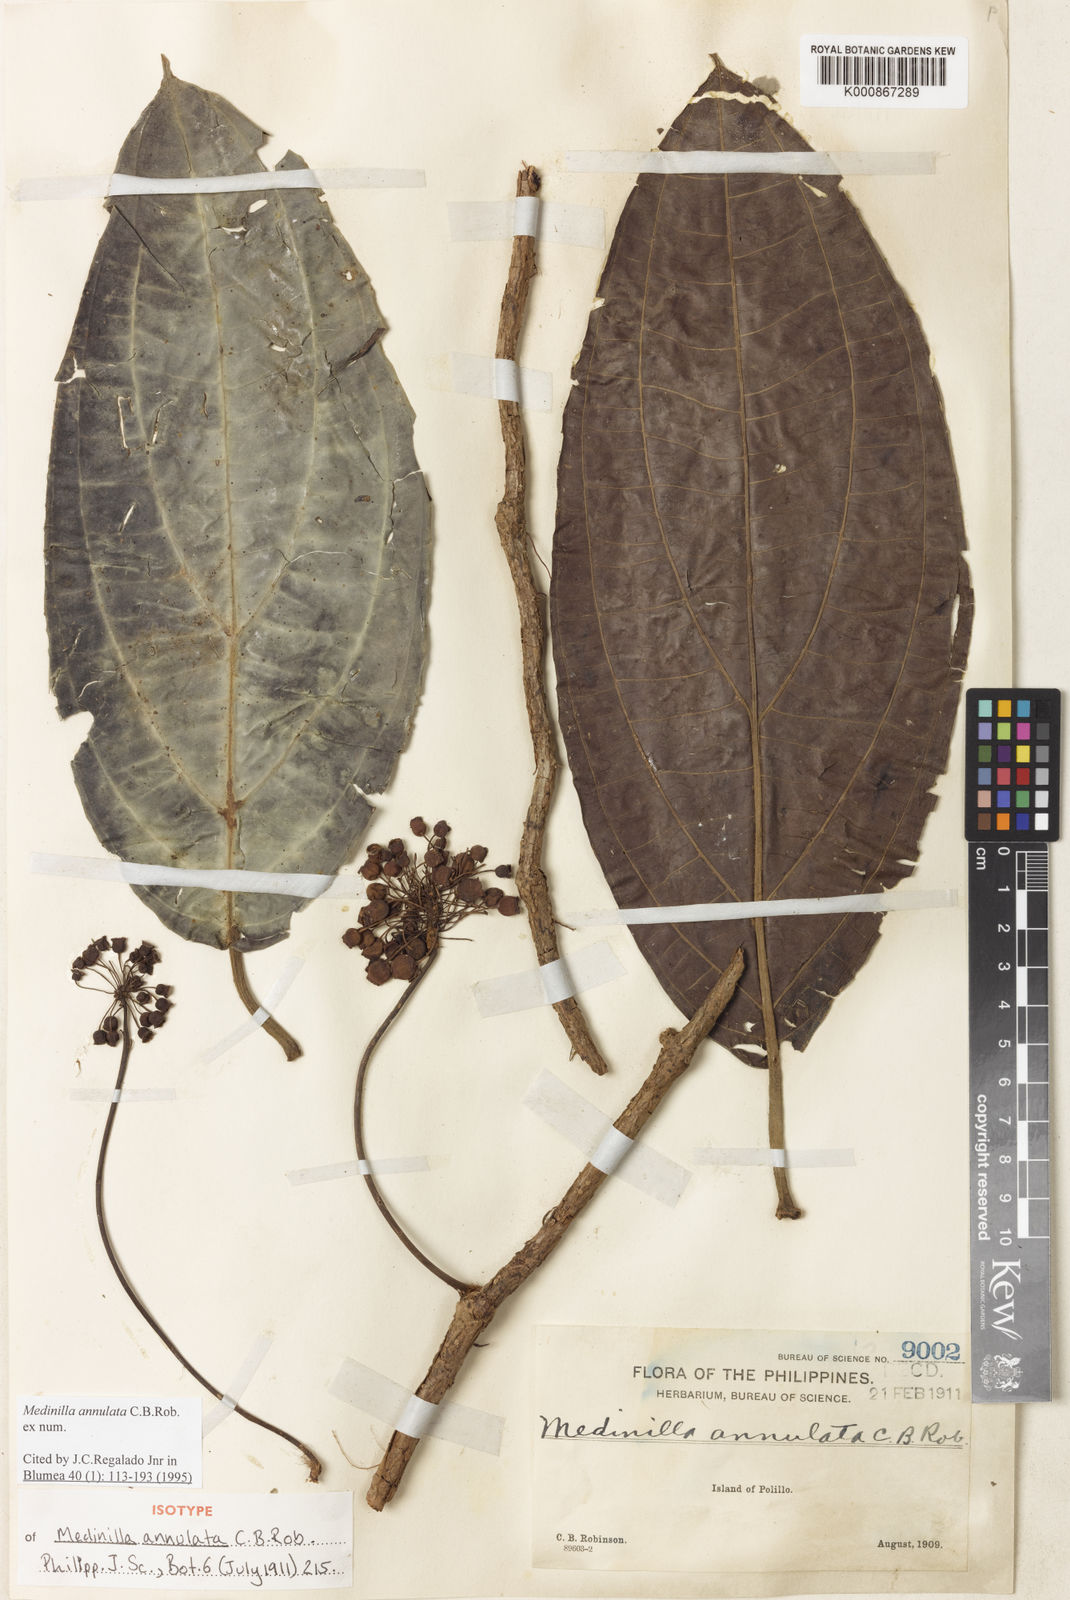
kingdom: Plantae
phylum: Tracheophyta
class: Magnoliopsida
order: Myrtales
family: Melastomataceae
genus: Medinilla
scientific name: Medinilla annulata
